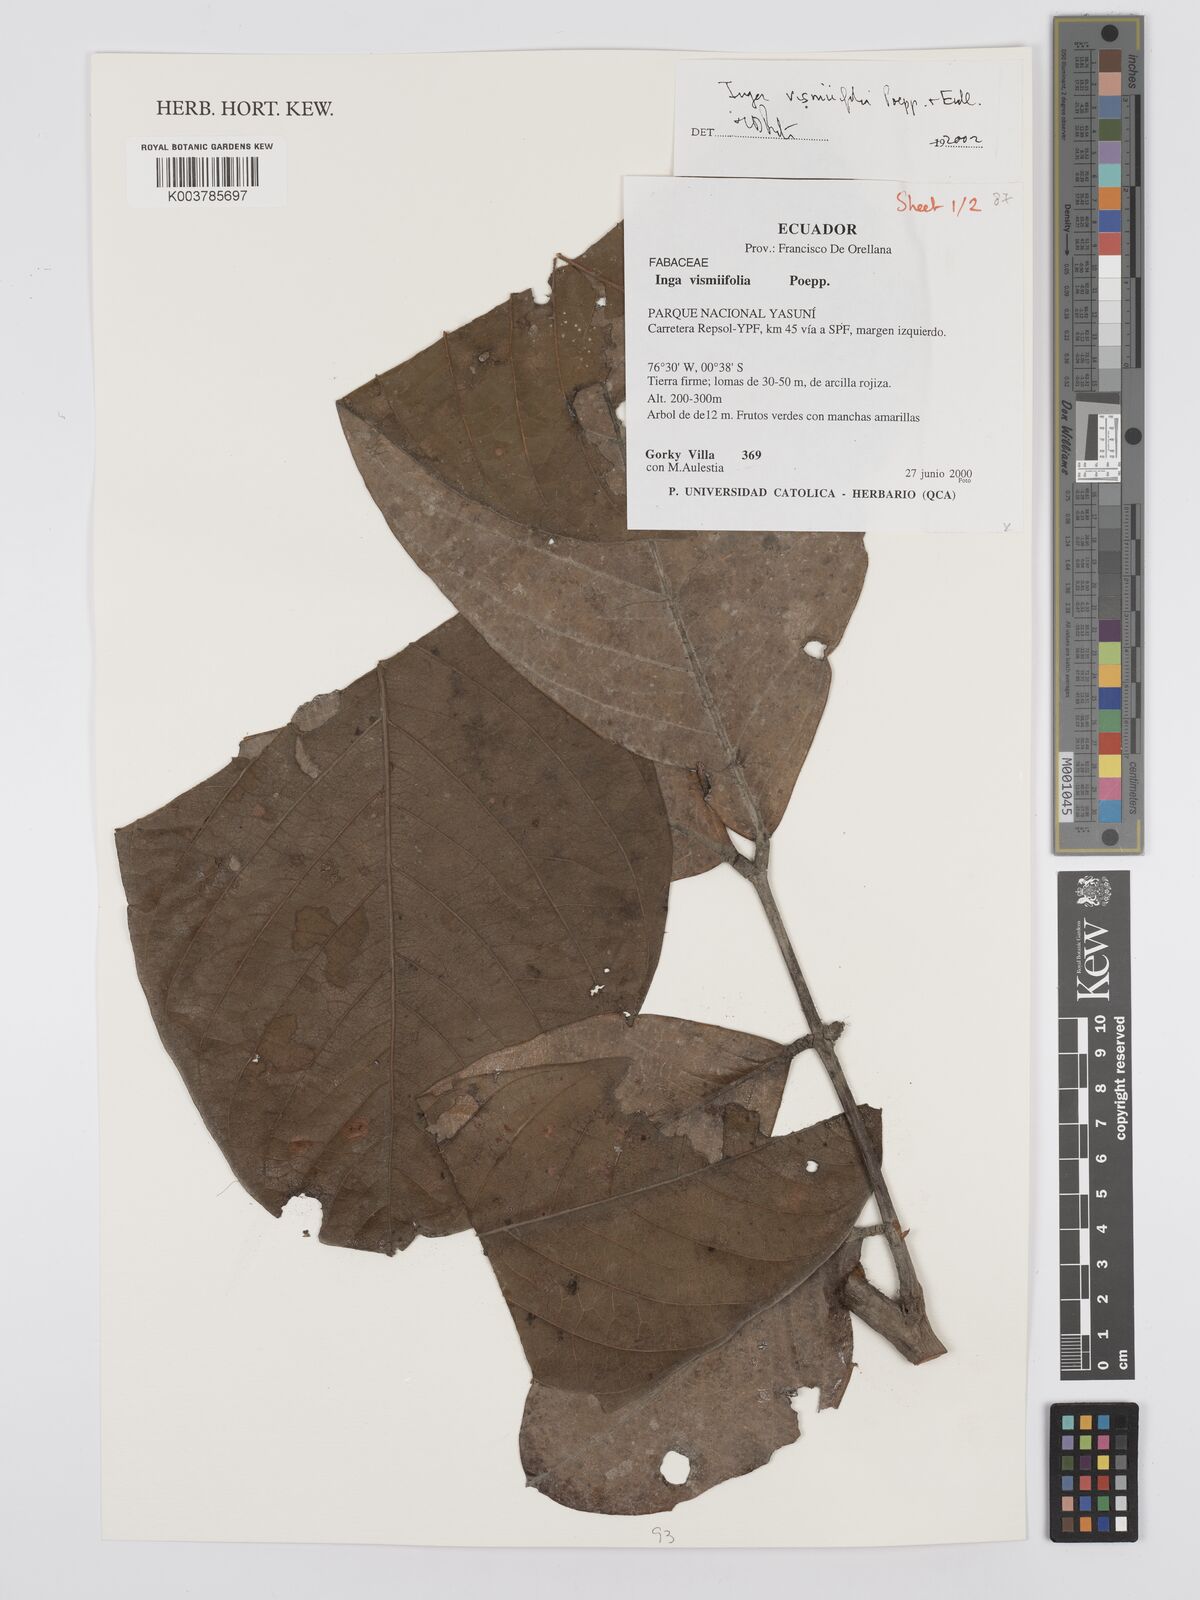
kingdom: Plantae
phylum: Tracheophyta
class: Magnoliopsida
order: Fabales
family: Fabaceae
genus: Inga
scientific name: Inga vismiifolia
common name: Howler monkey inga
